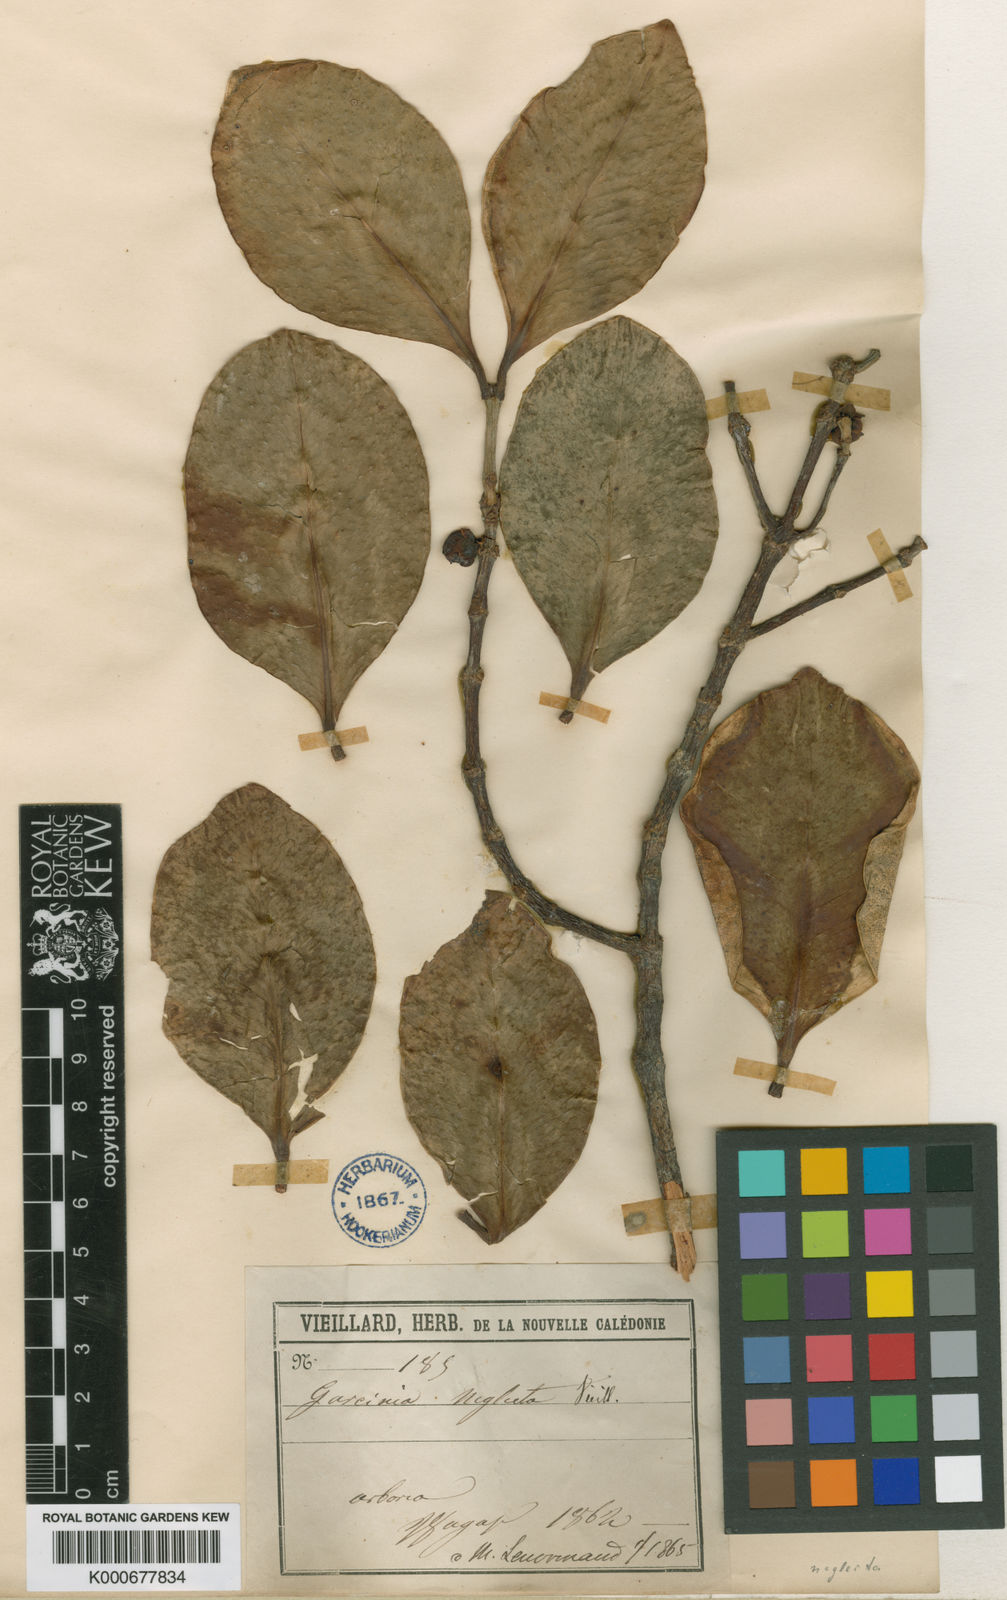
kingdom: Plantae
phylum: Tracheophyta
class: Magnoliopsida
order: Malpighiales
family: Clusiaceae
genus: Garcinia
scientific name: Garcinia corallina
